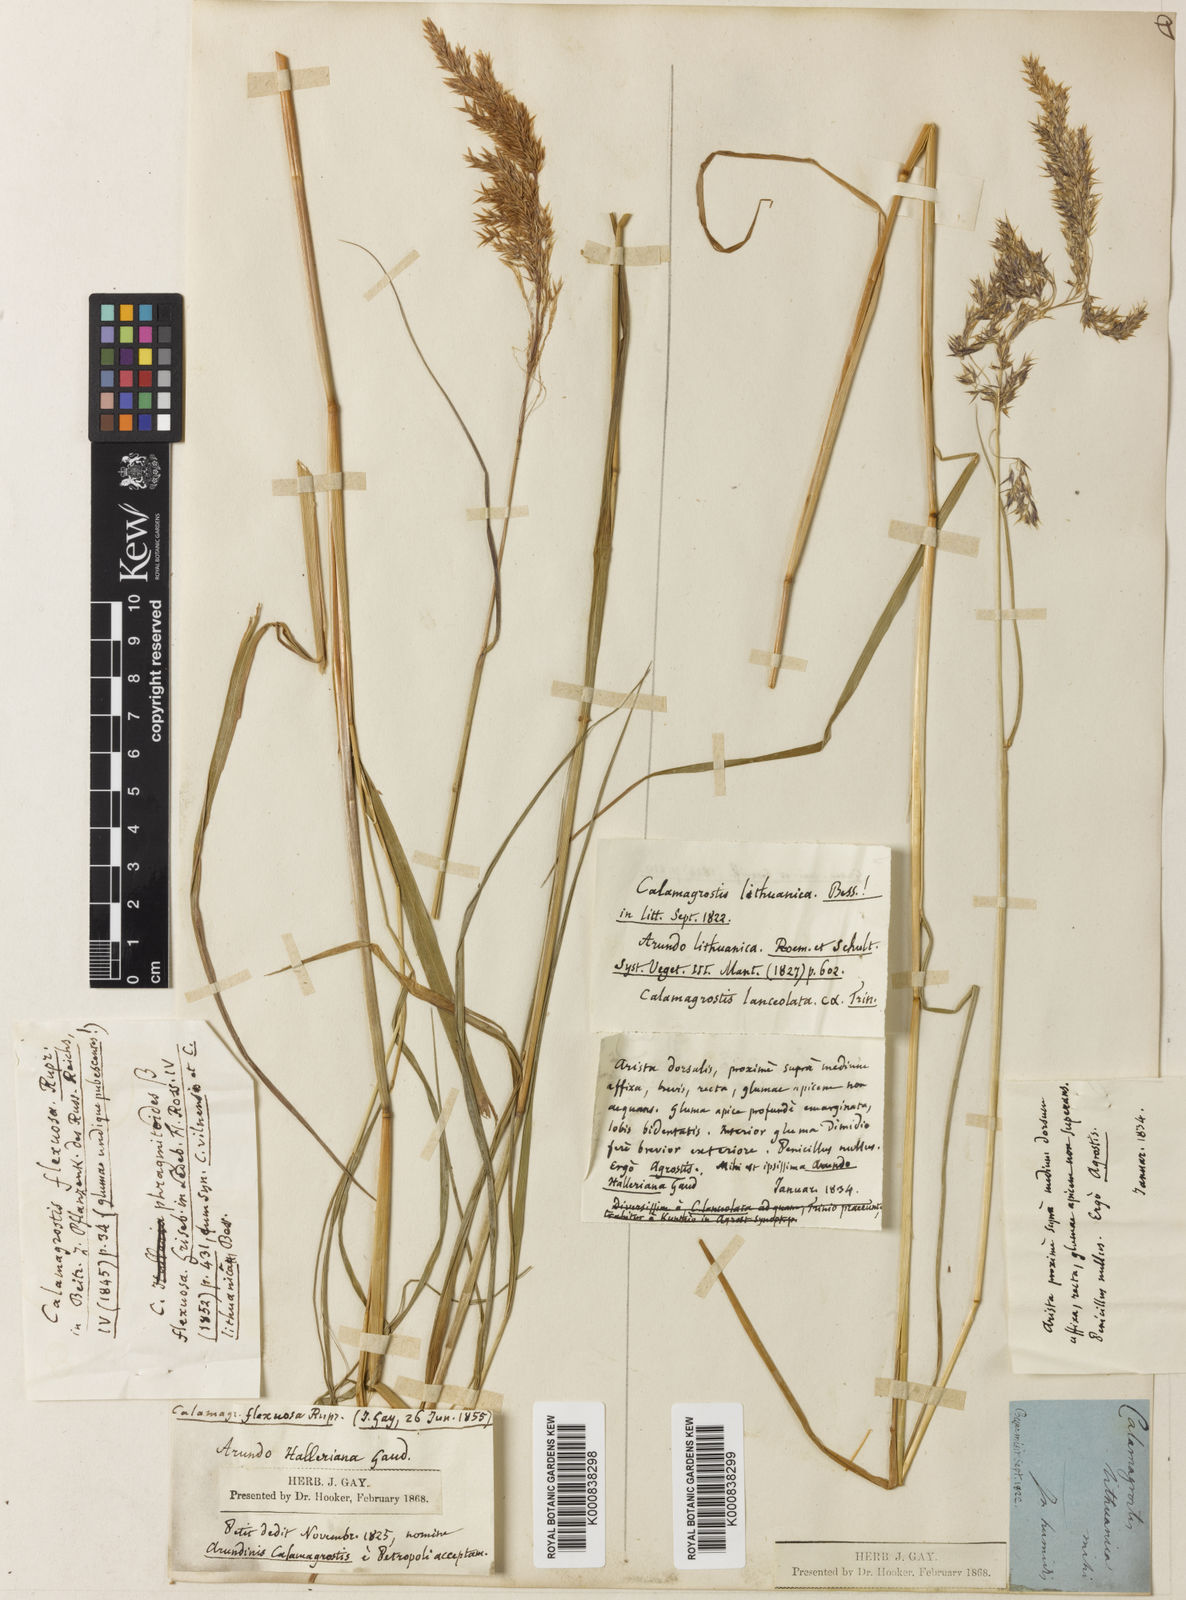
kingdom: Plantae
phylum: Tracheophyta
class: Liliopsida
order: Poales
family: Poaceae
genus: Calamagrostis
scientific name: Calamagrostis villosa
